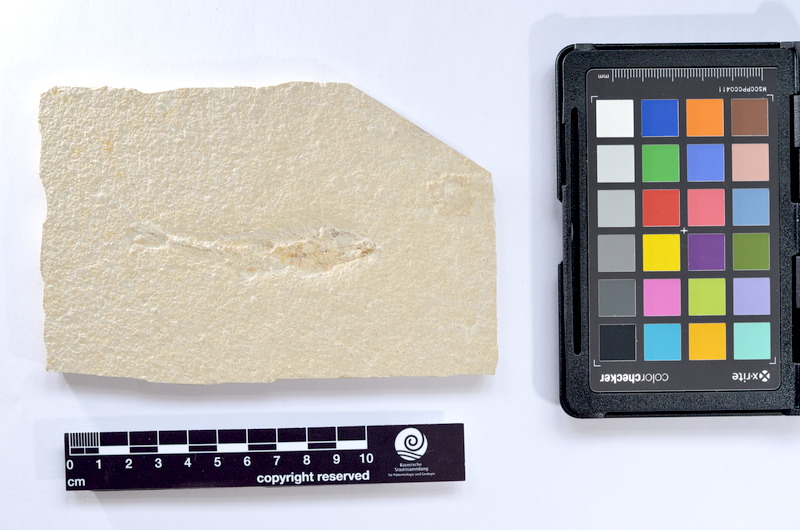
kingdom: Animalia
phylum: Chordata
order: Salmoniformes
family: Orthogonikleithridae
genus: Leptolepides
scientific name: Leptolepides sprattiformis
